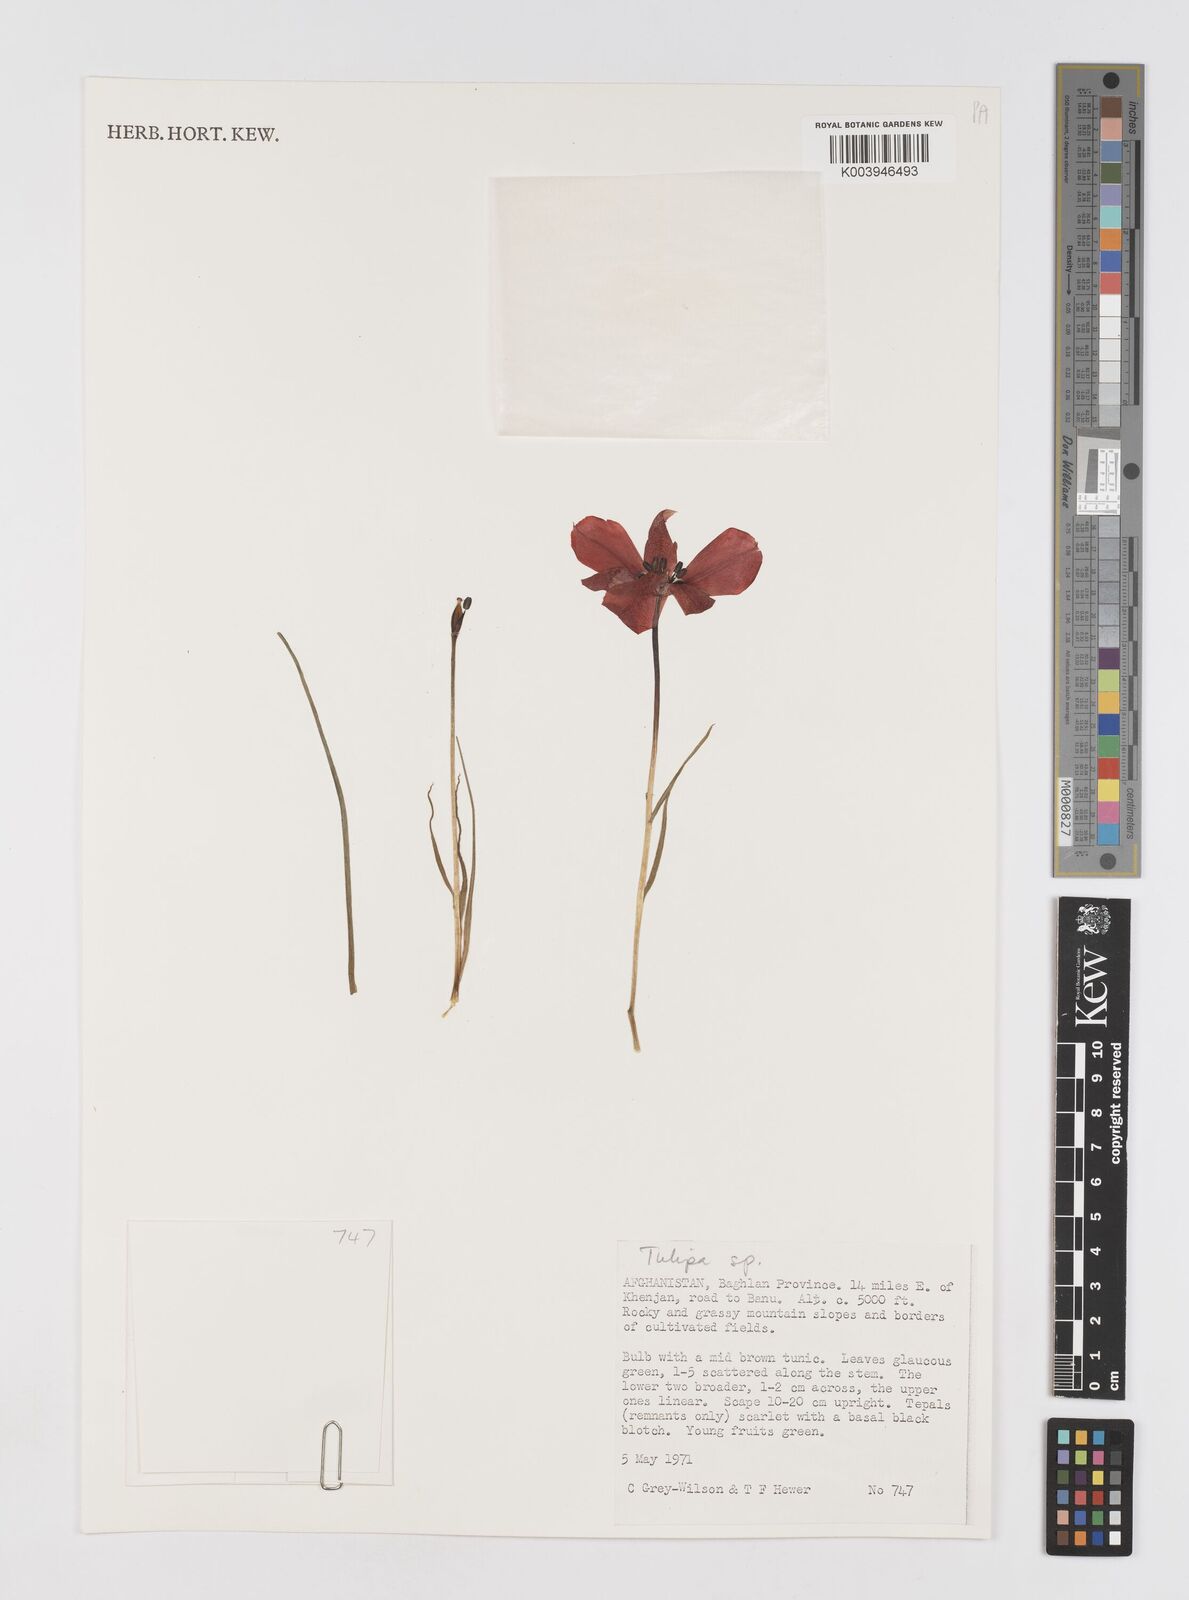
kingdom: Plantae
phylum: Tracheophyta
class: Liliopsida
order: Liliales
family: Liliaceae
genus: Tulipa
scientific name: Tulipa
